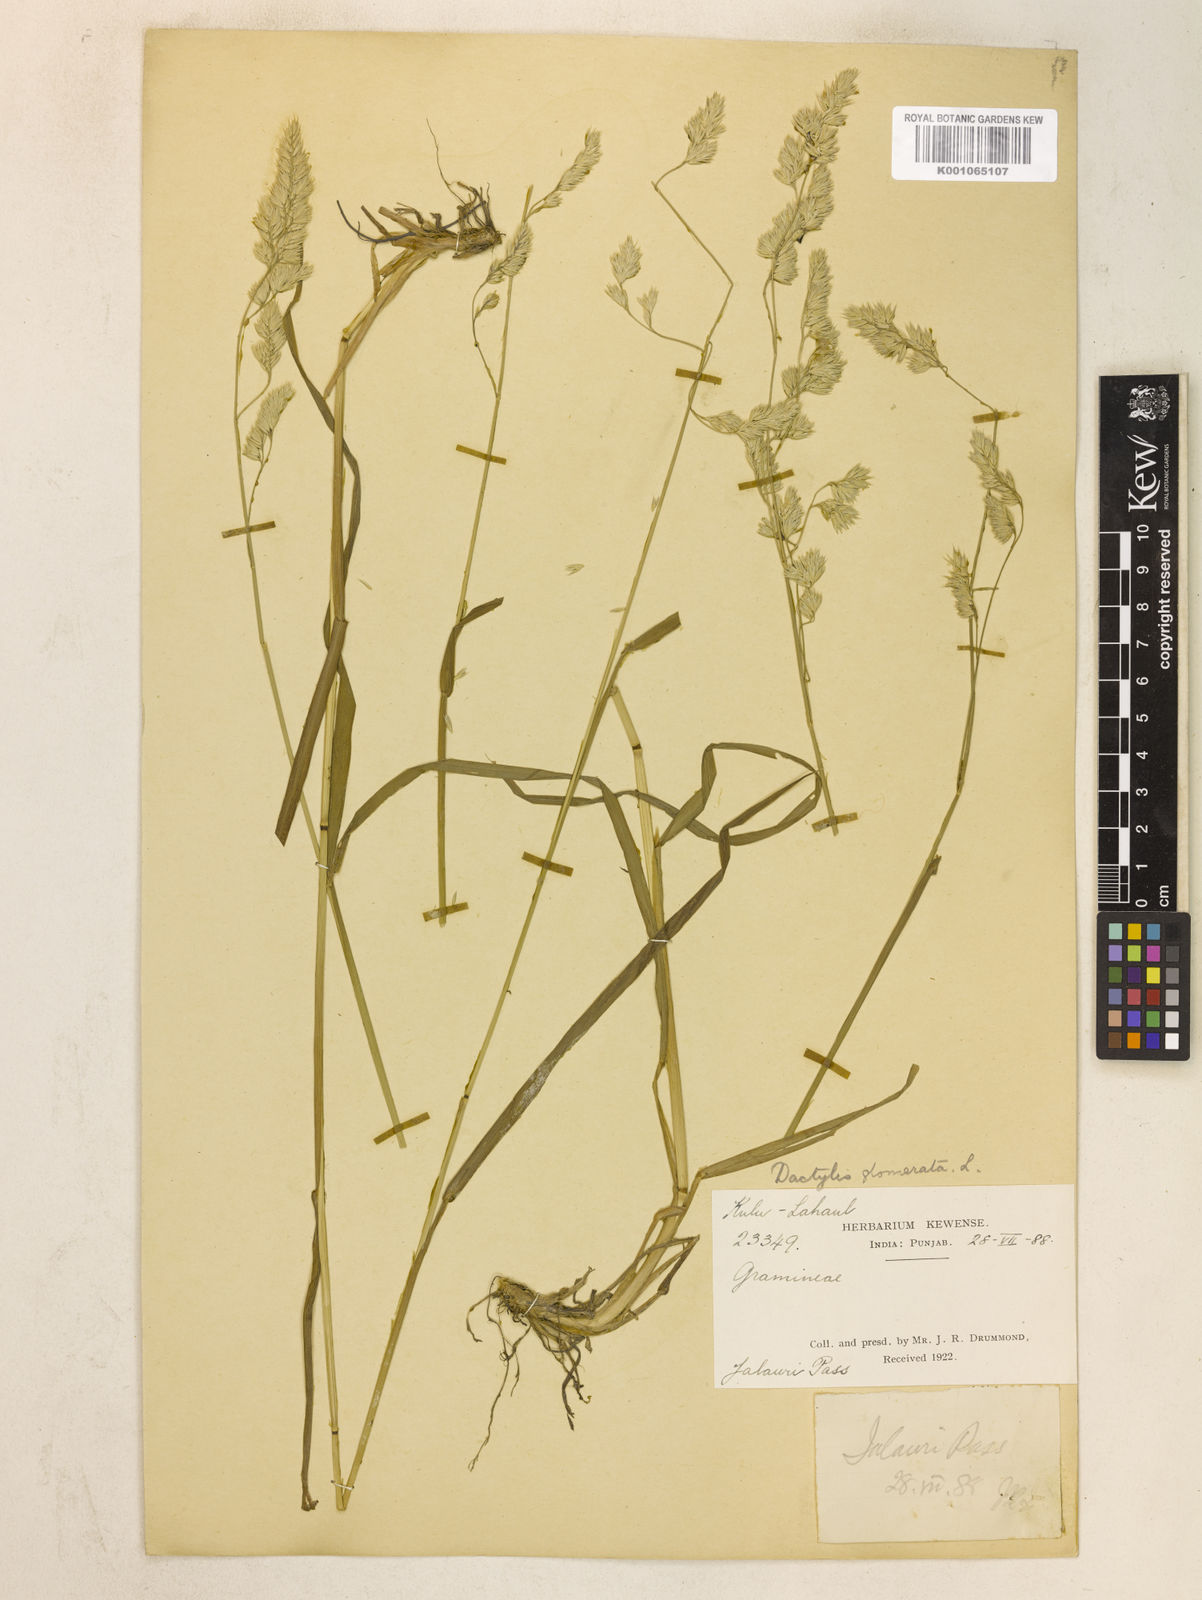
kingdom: Plantae
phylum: Tracheophyta
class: Liliopsida
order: Poales
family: Poaceae
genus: Dactylis
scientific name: Dactylis glomerata
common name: Orchardgrass
